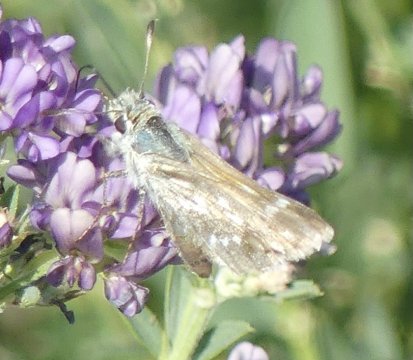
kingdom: Animalia
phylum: Arthropoda
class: Insecta
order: Lepidoptera
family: Hesperiidae
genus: Hesperia
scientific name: Hesperia comma
